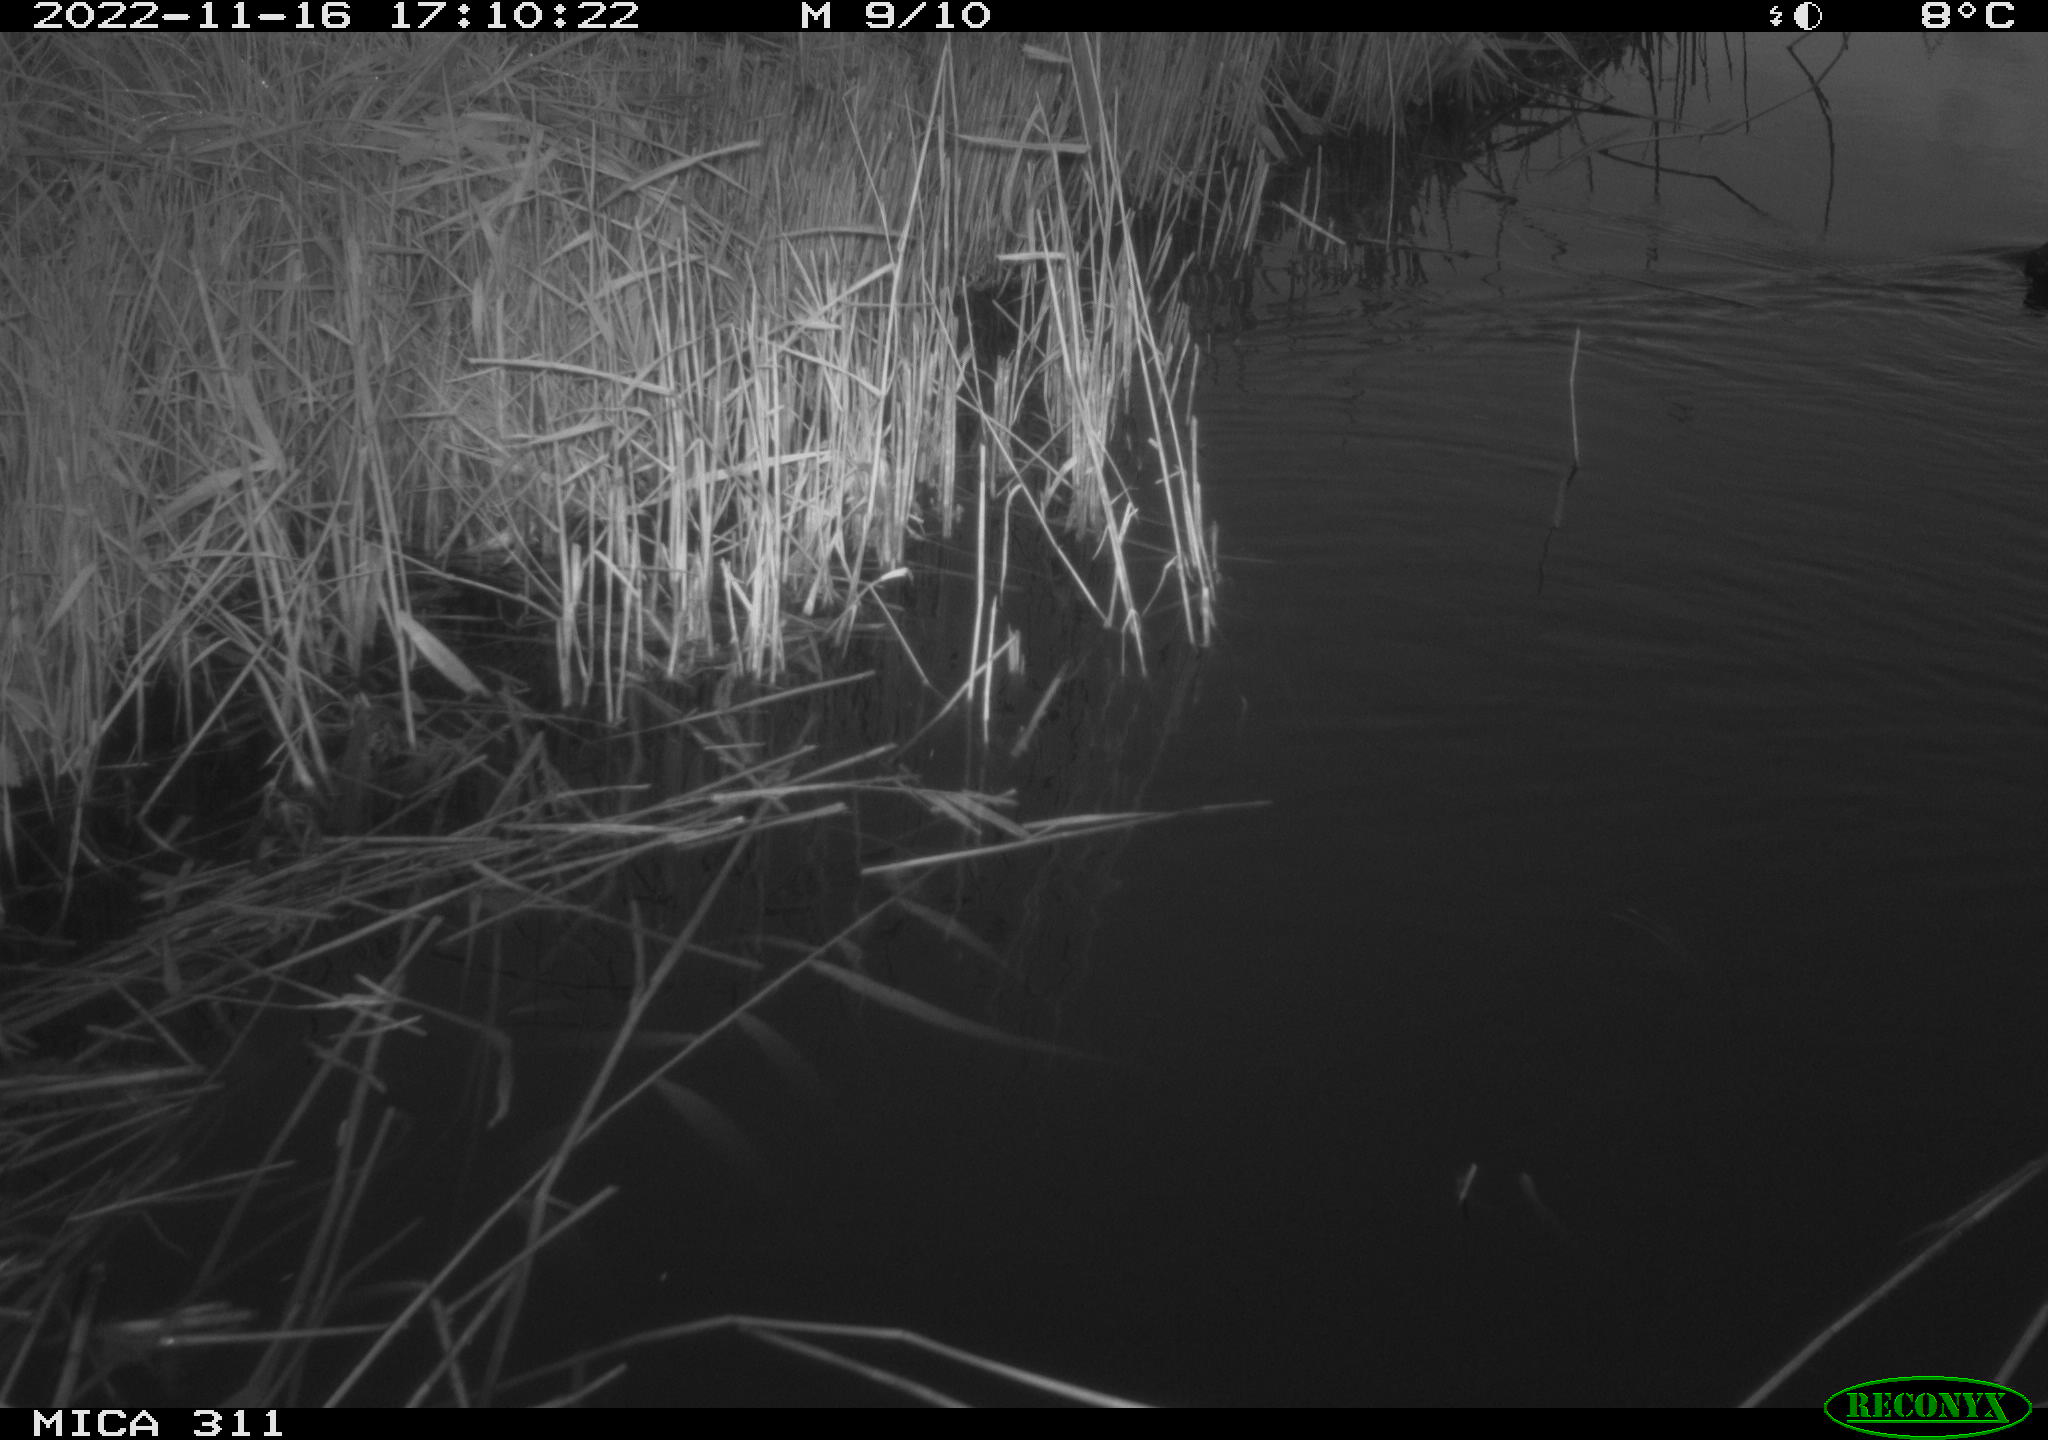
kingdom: Animalia
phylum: Chordata
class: Aves
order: Gruiformes
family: Rallidae
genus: Gallinula
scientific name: Gallinula chloropus
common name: Common moorhen
